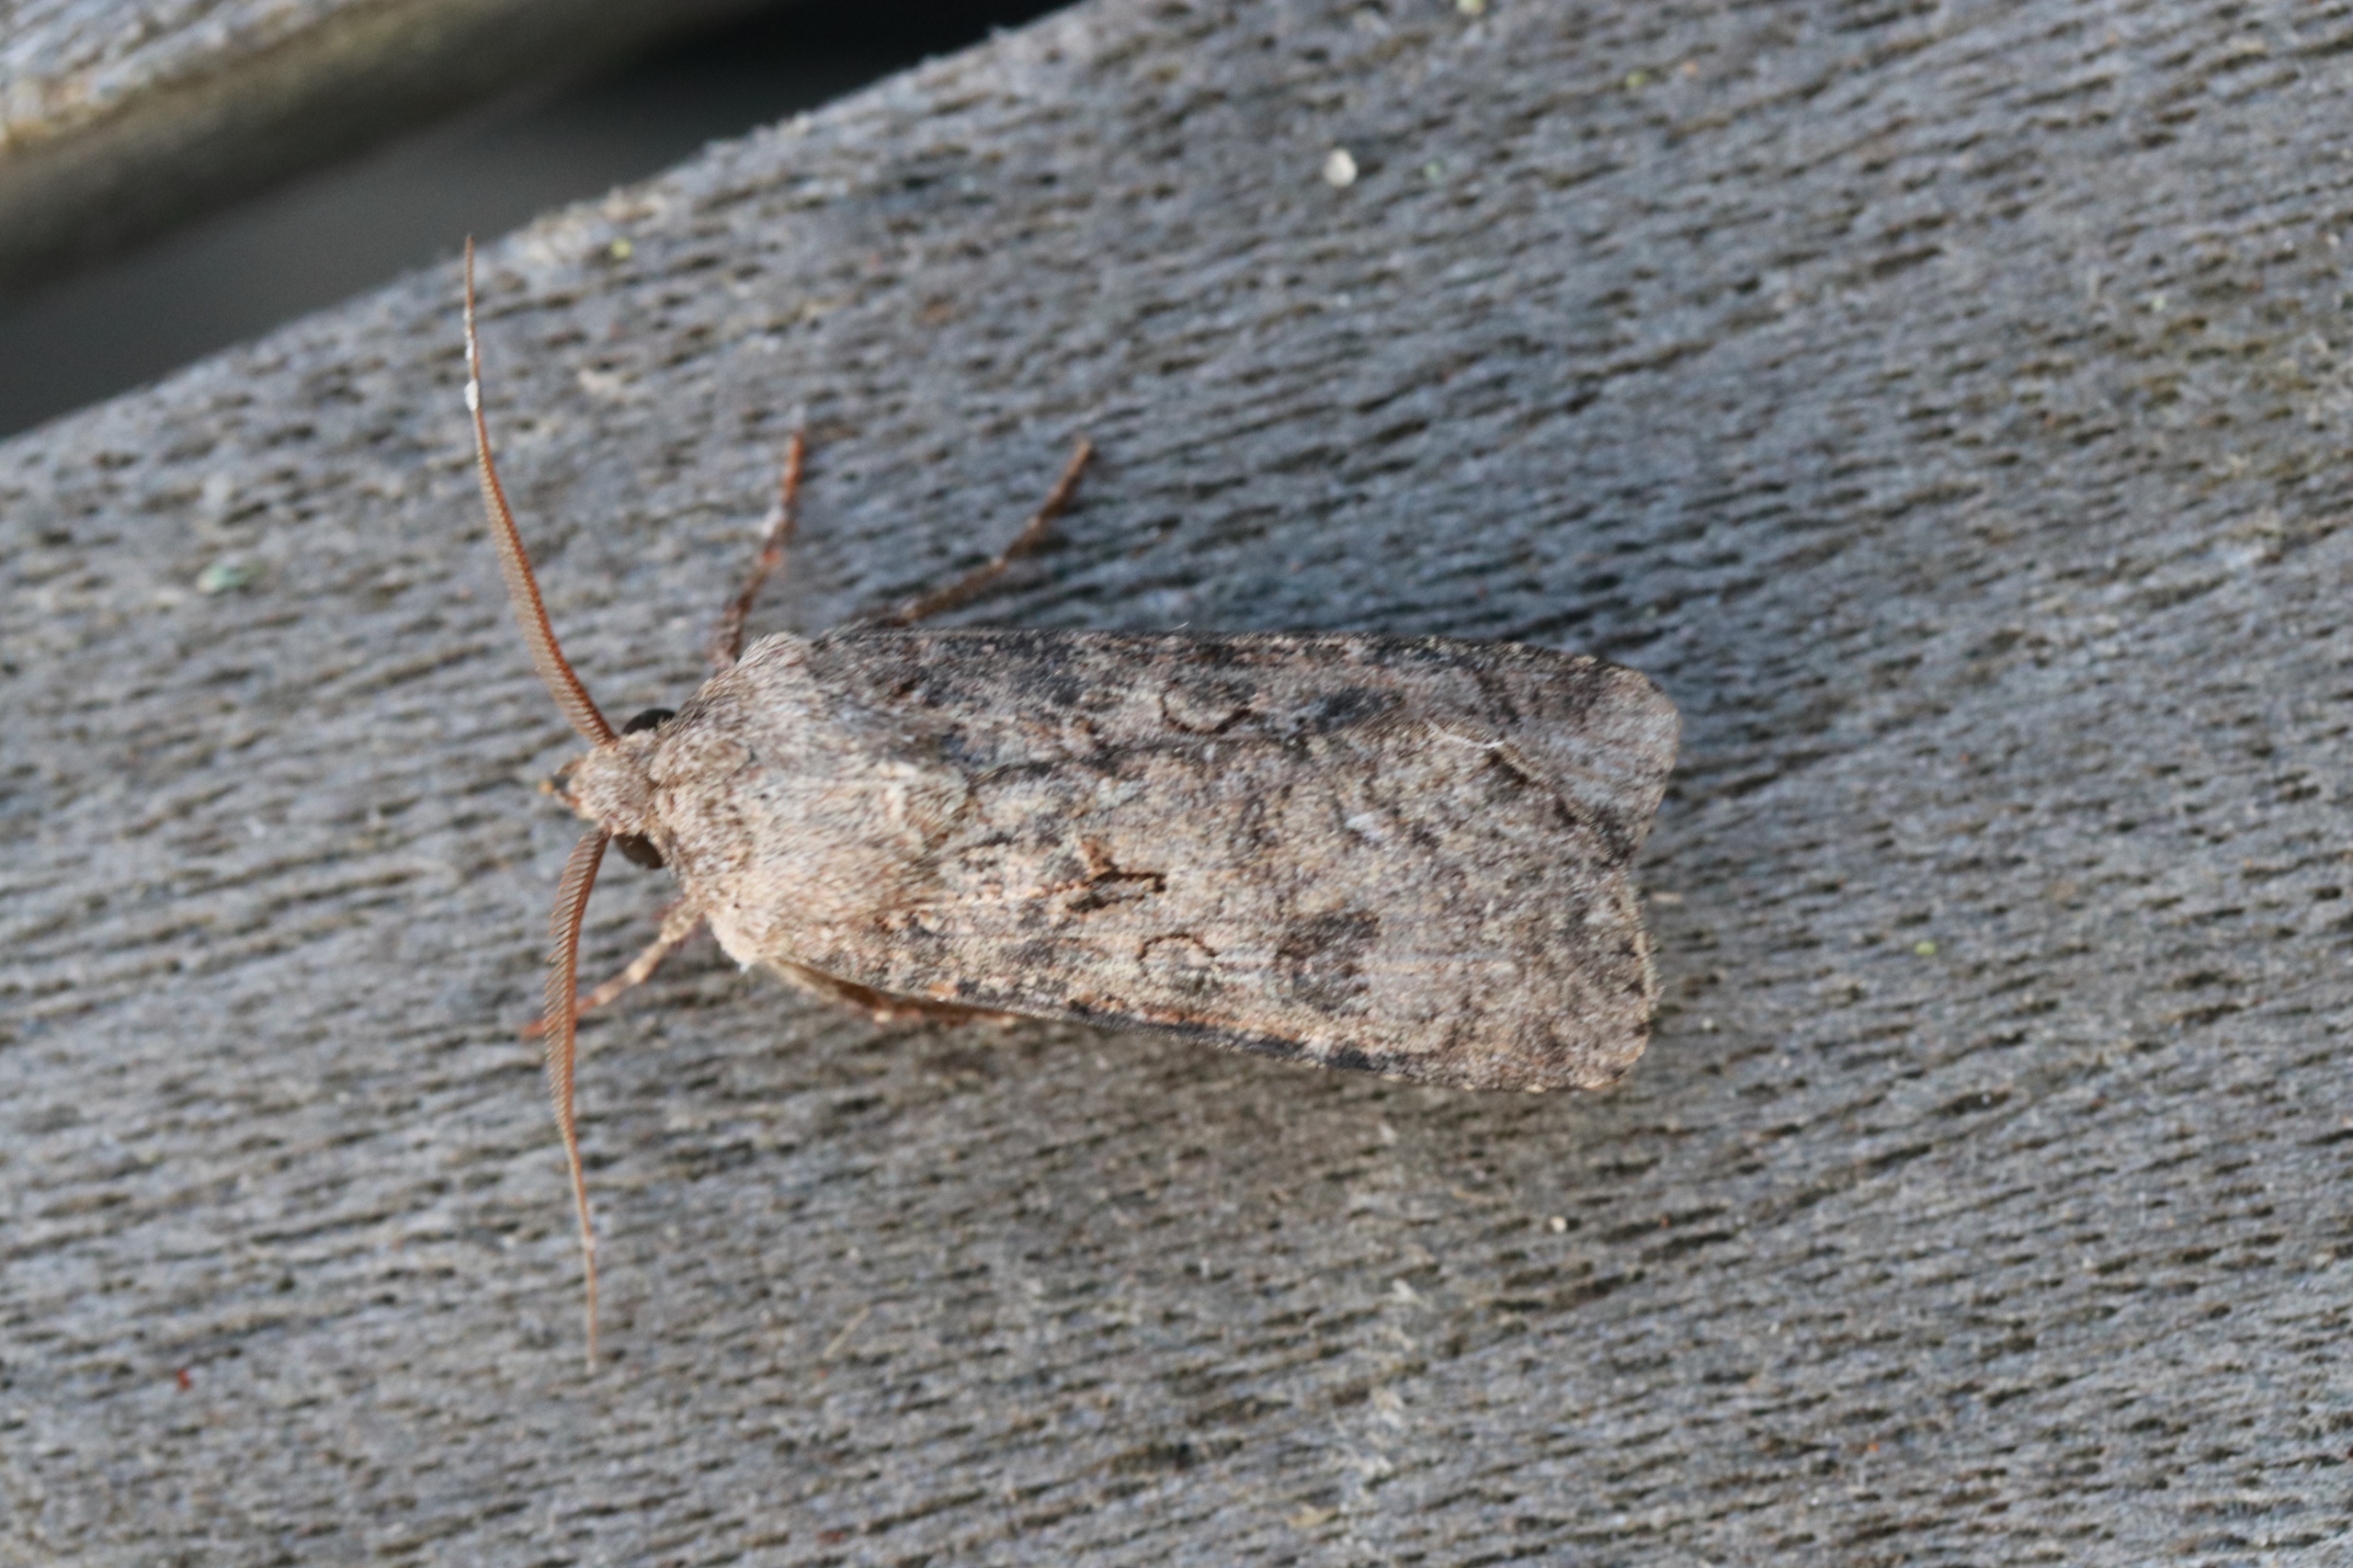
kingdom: Animalia
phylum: Arthropoda
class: Insecta
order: Lepidoptera
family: Noctuidae
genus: Agrotis
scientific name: Agrotis segetum
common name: Agerugle
